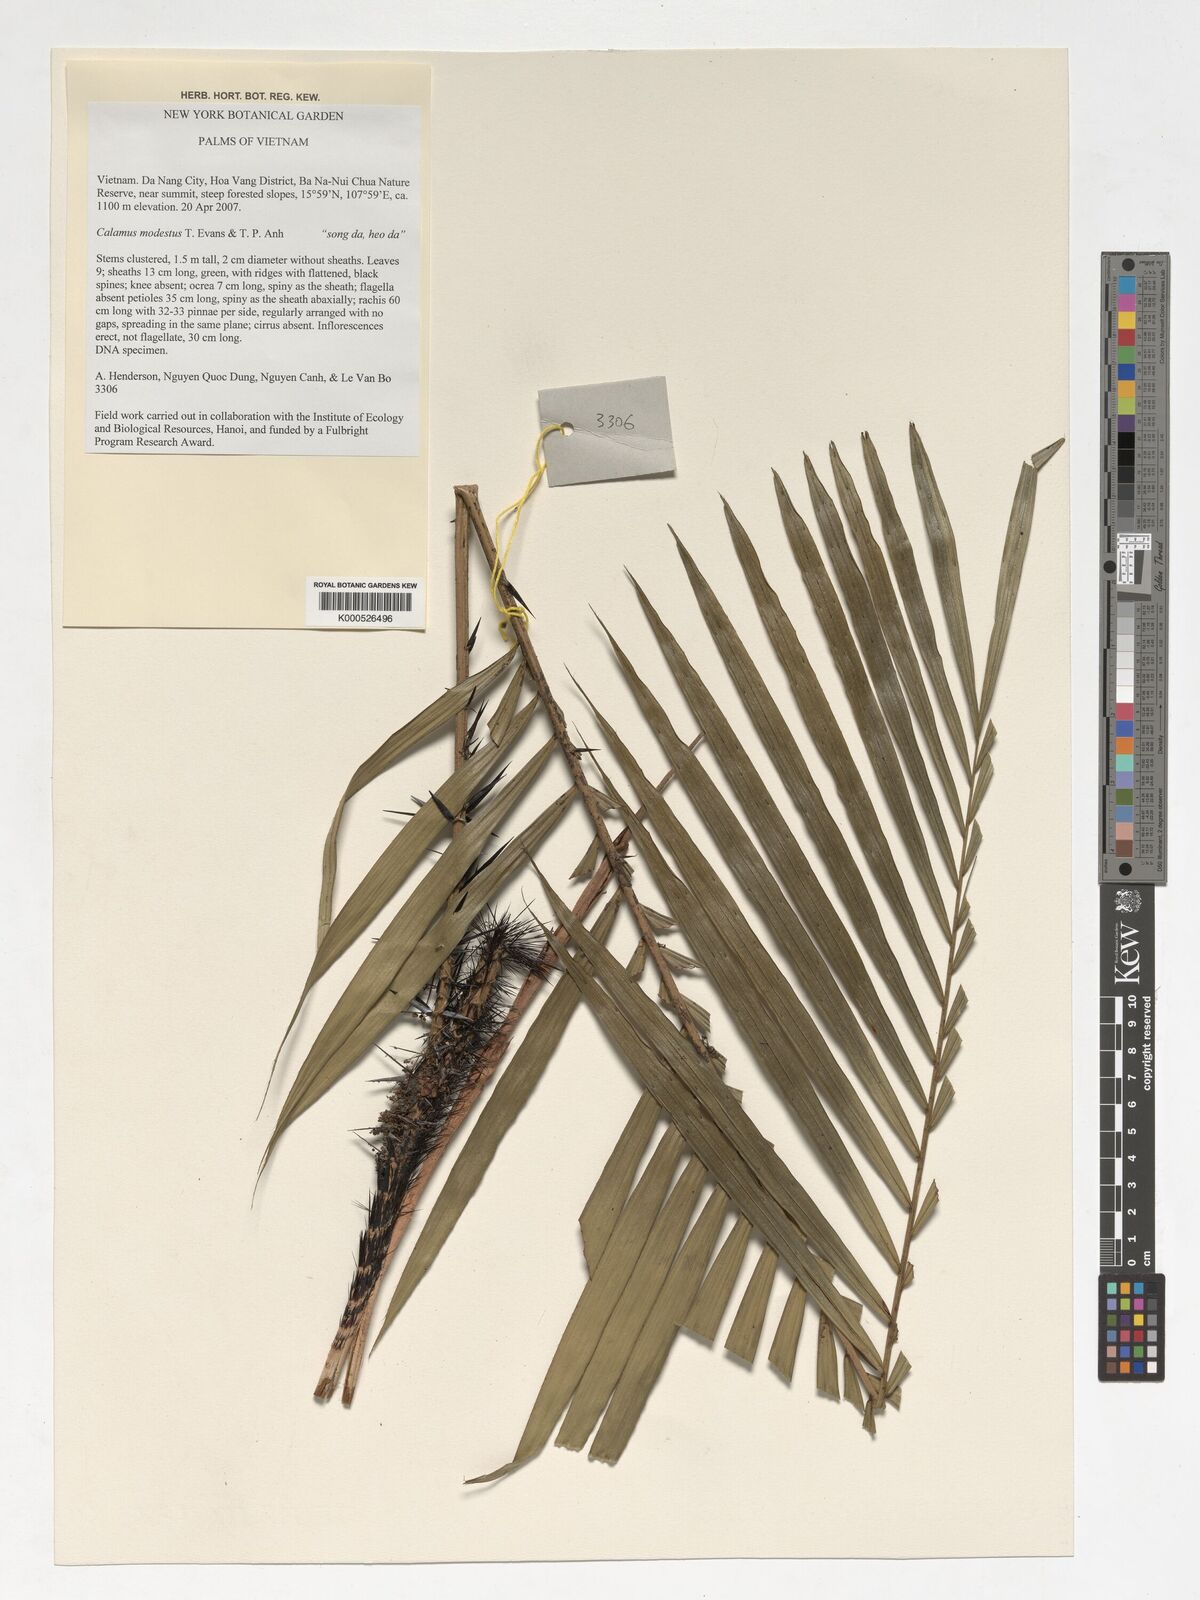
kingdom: Plantae
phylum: Tracheophyta
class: Liliopsida
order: Arecales
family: Arecaceae
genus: Calamus
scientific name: Calamus modestus
